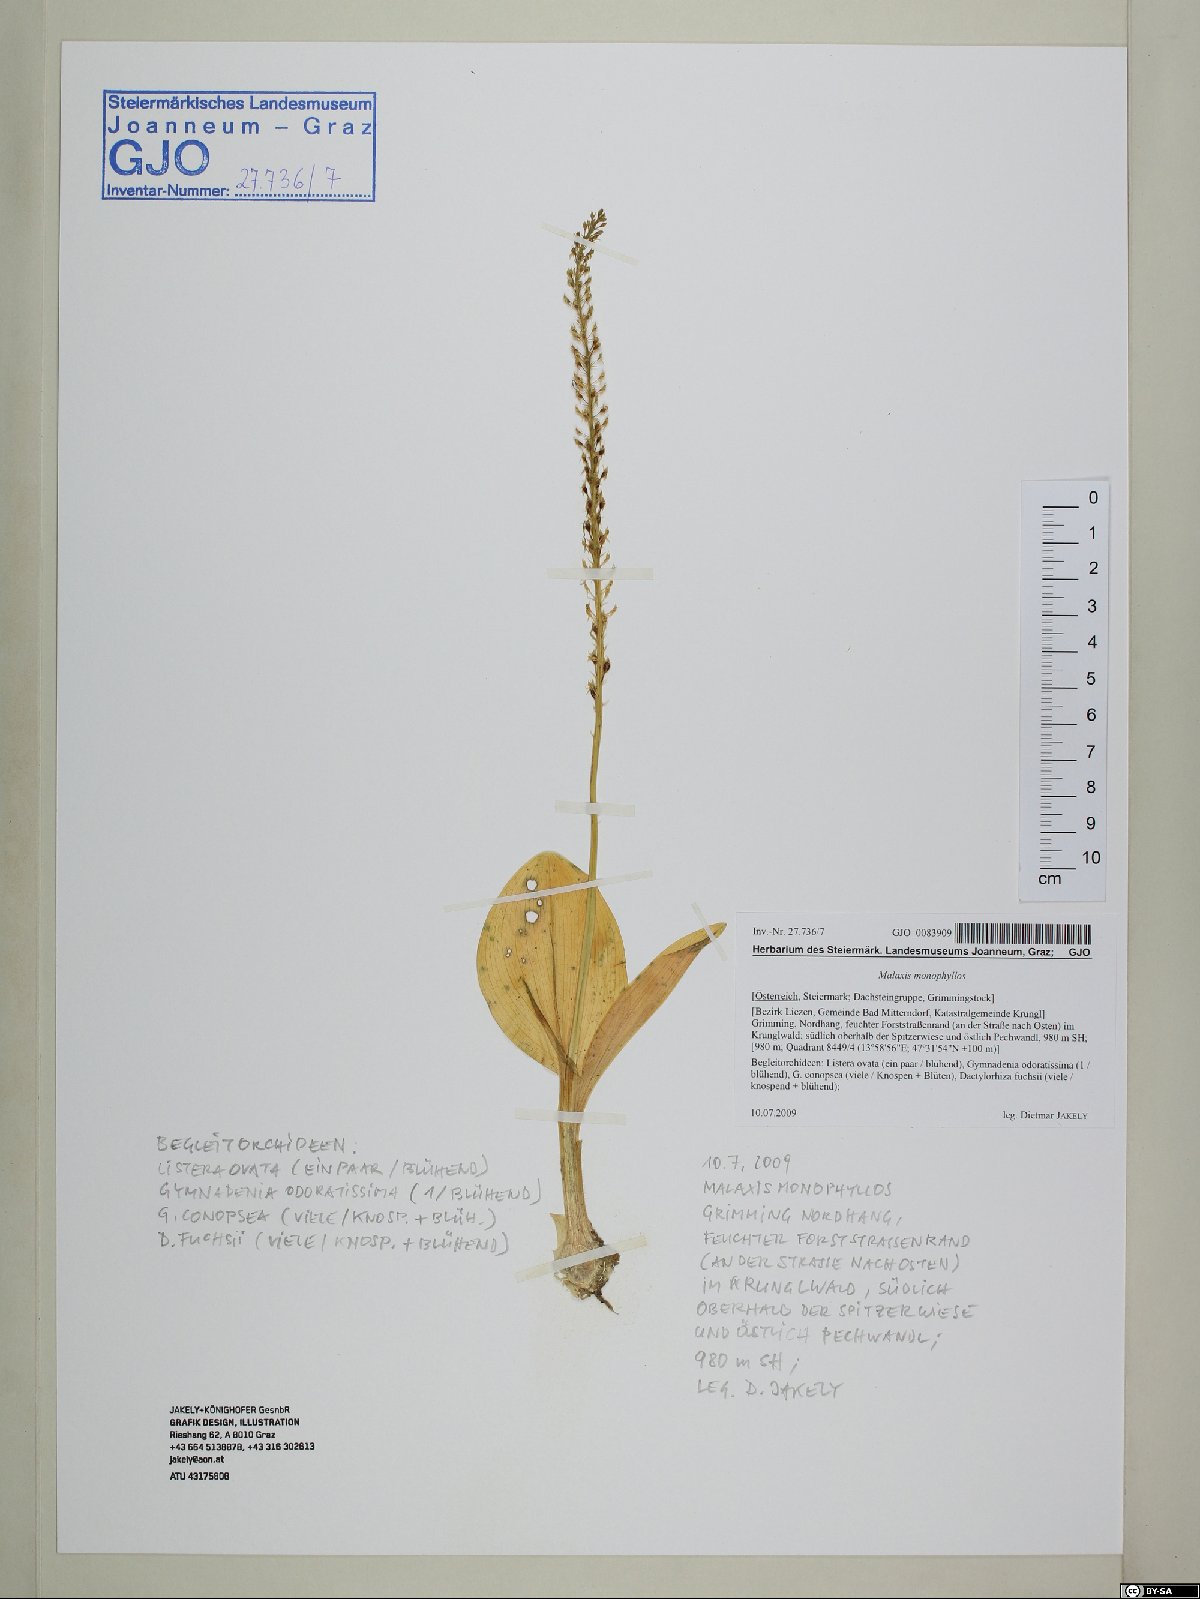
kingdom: Plantae
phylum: Tracheophyta
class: Liliopsida
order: Asparagales
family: Orchidaceae
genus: Malaxis
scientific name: Malaxis monophyllos
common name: White adder's-mouth
